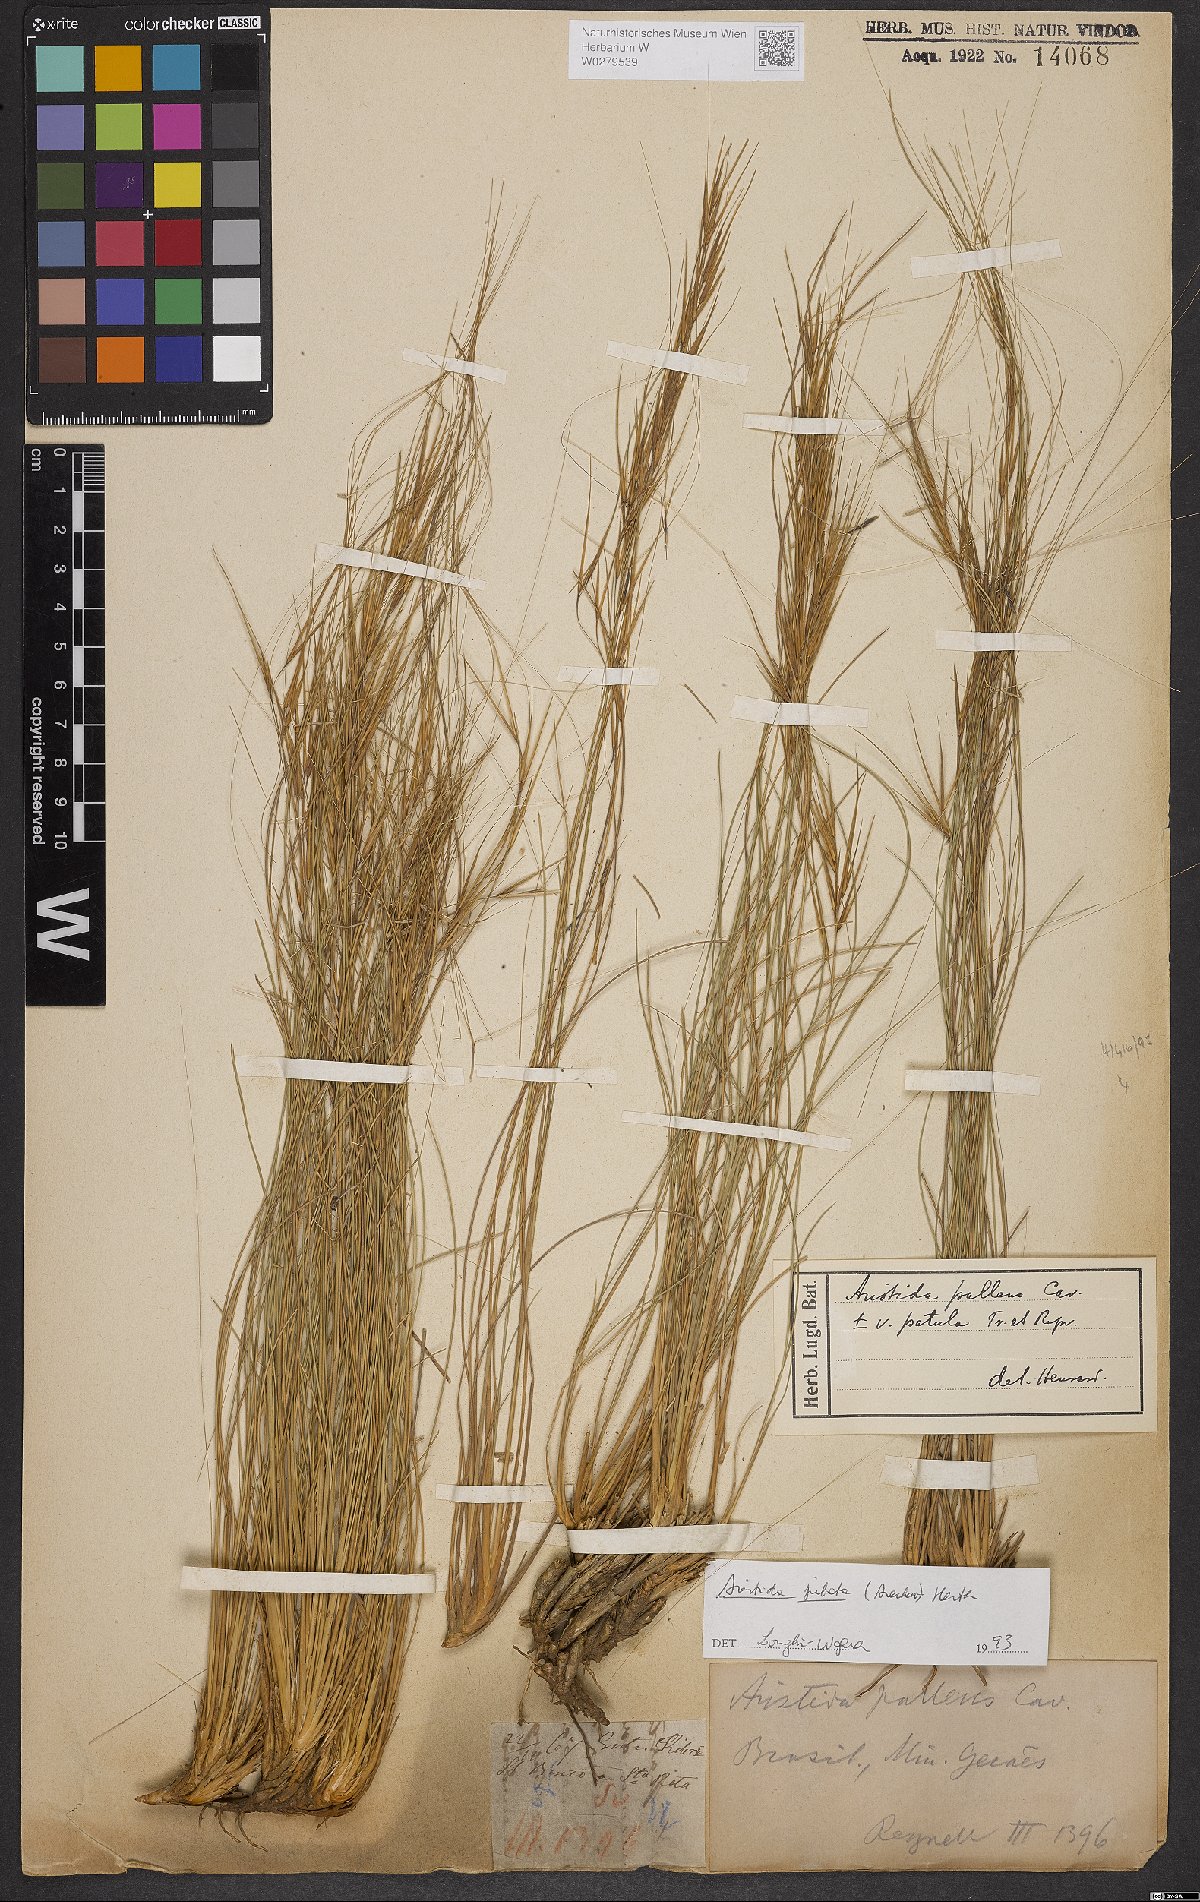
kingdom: Plantae
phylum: Tracheophyta
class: Liliopsida
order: Poales
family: Poaceae
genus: Aristida
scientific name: Aristida jubata
